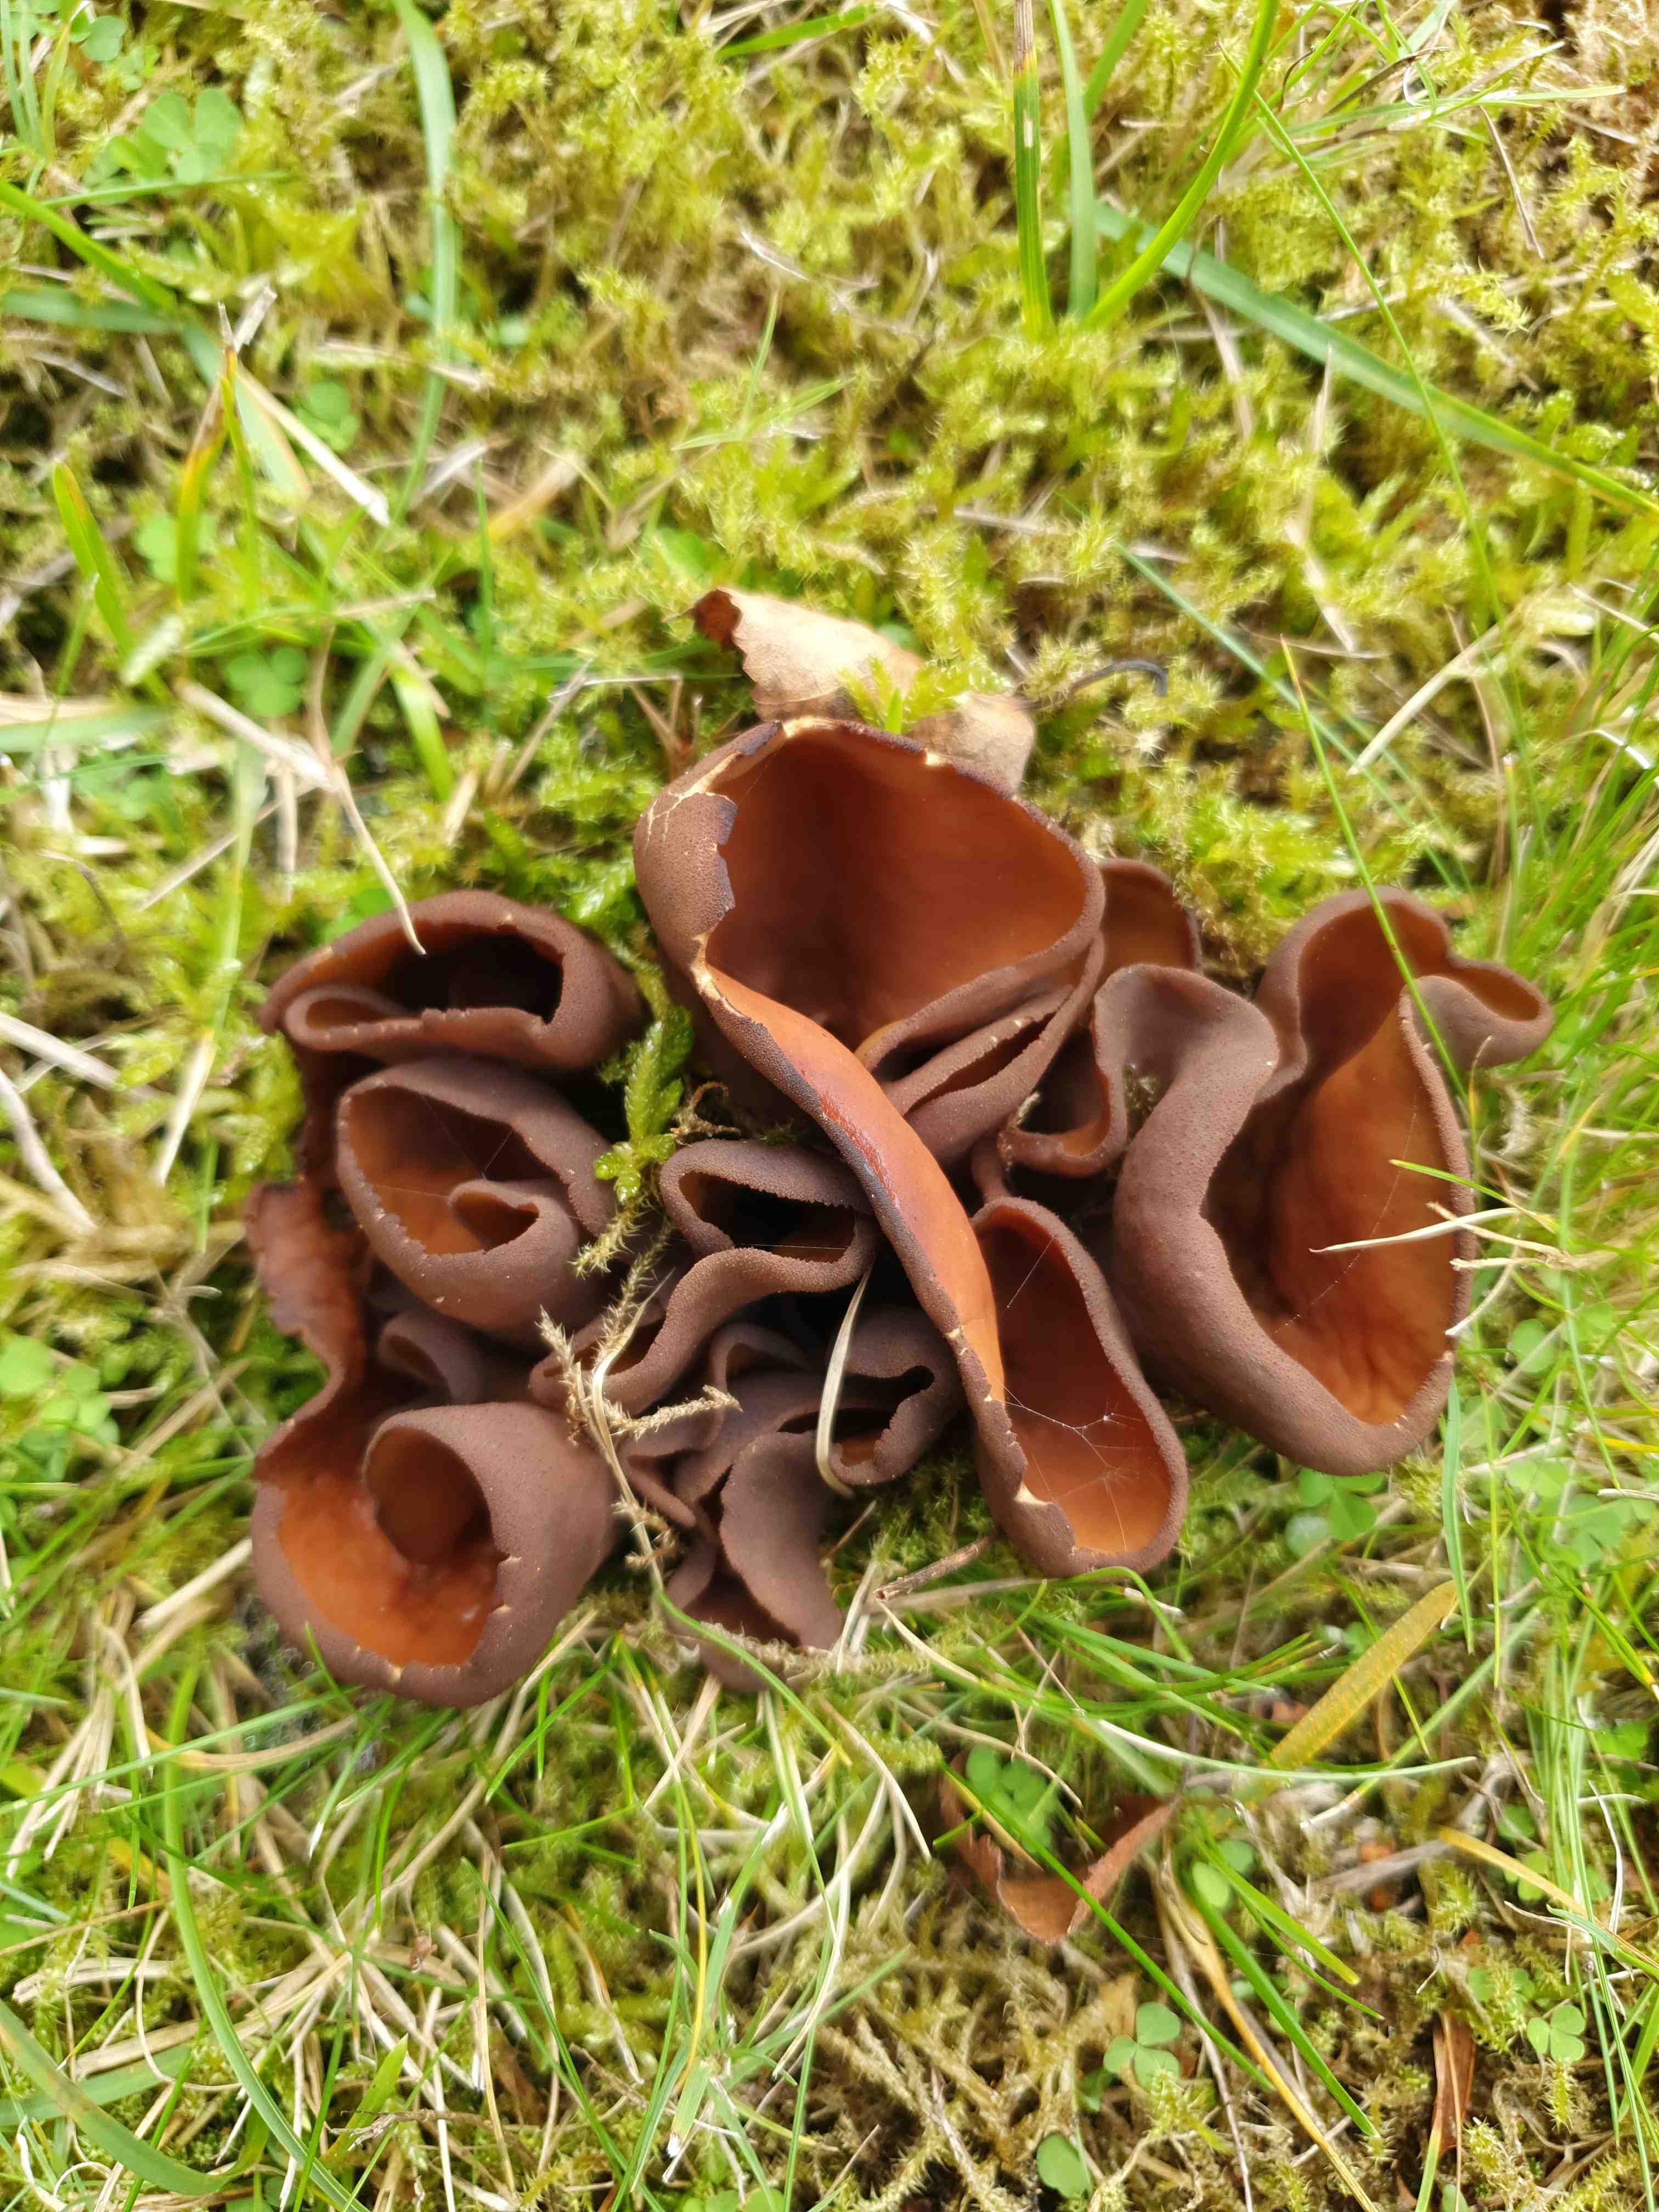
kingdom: Fungi
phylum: Ascomycota
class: Pezizomycetes
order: Pezizales
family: Otideaceae
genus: Otidea
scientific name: Otidea bufonia
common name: brun ørebæger
